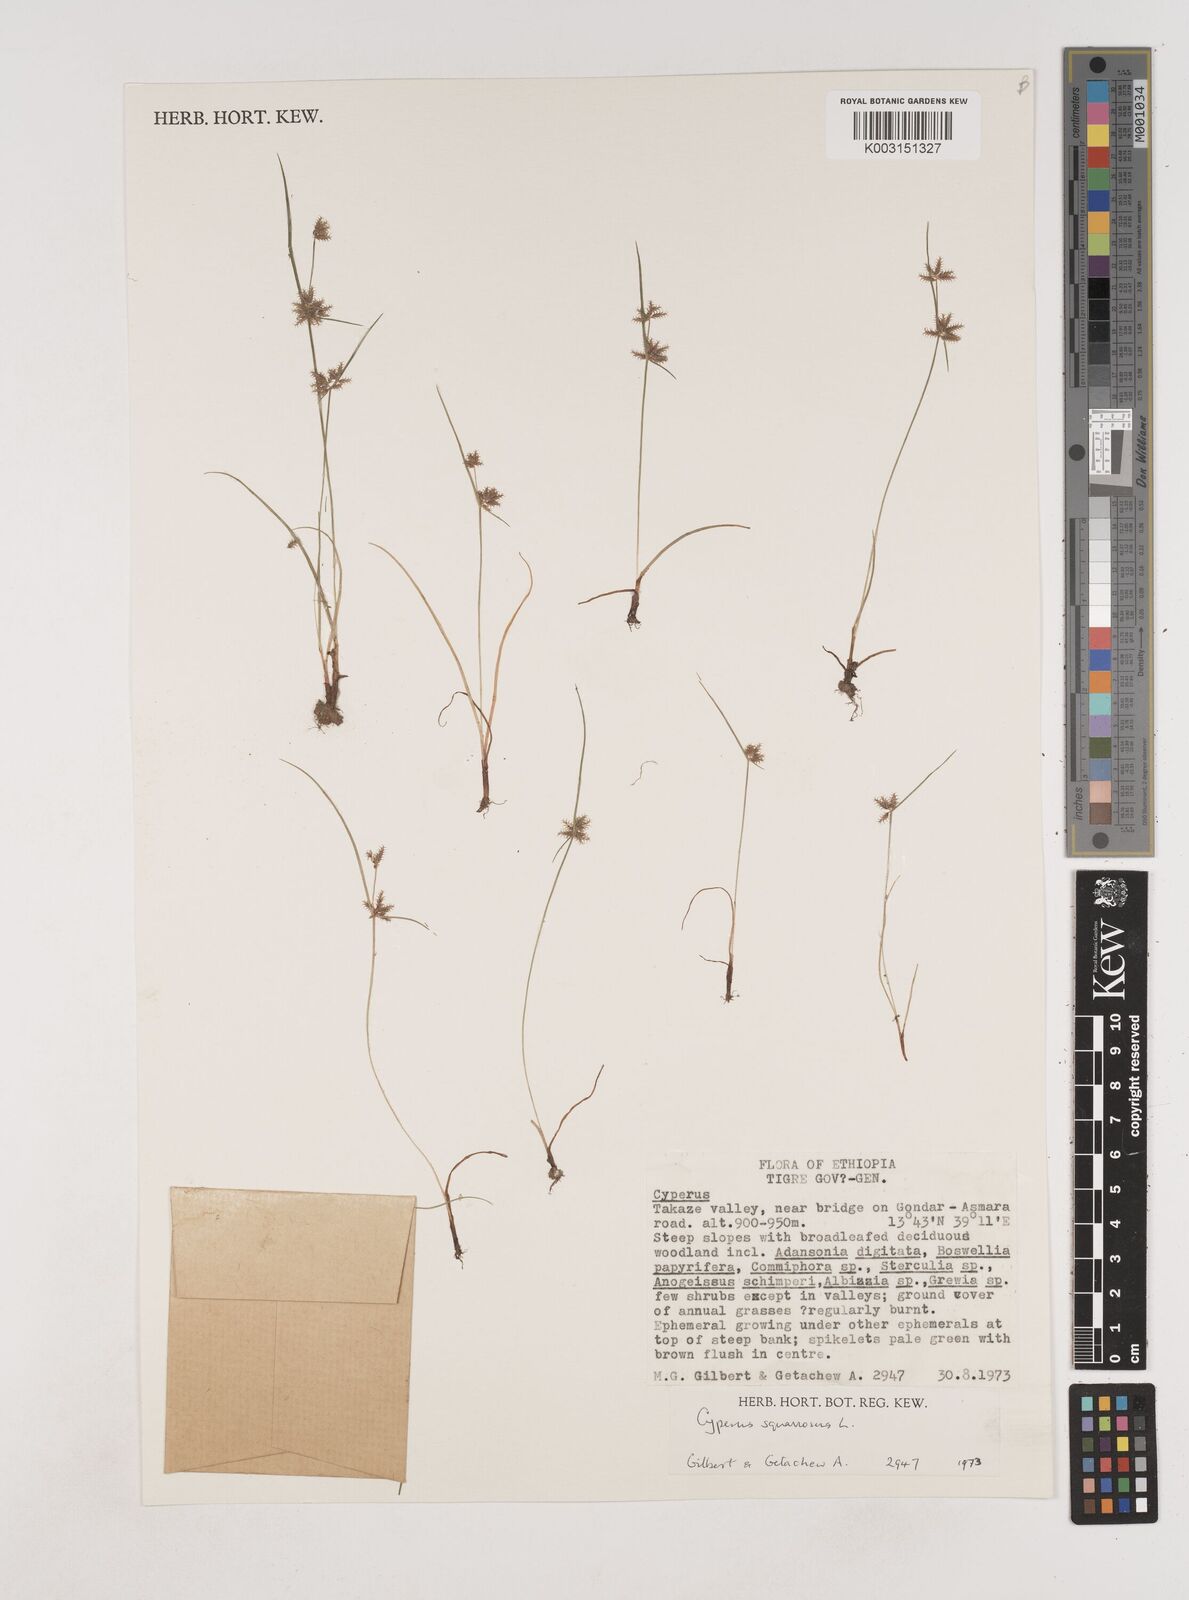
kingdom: Plantae
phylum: Tracheophyta
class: Liliopsida
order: Poales
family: Cyperaceae
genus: Cyperus
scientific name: Cyperus squarrosus
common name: Awned cyperus
